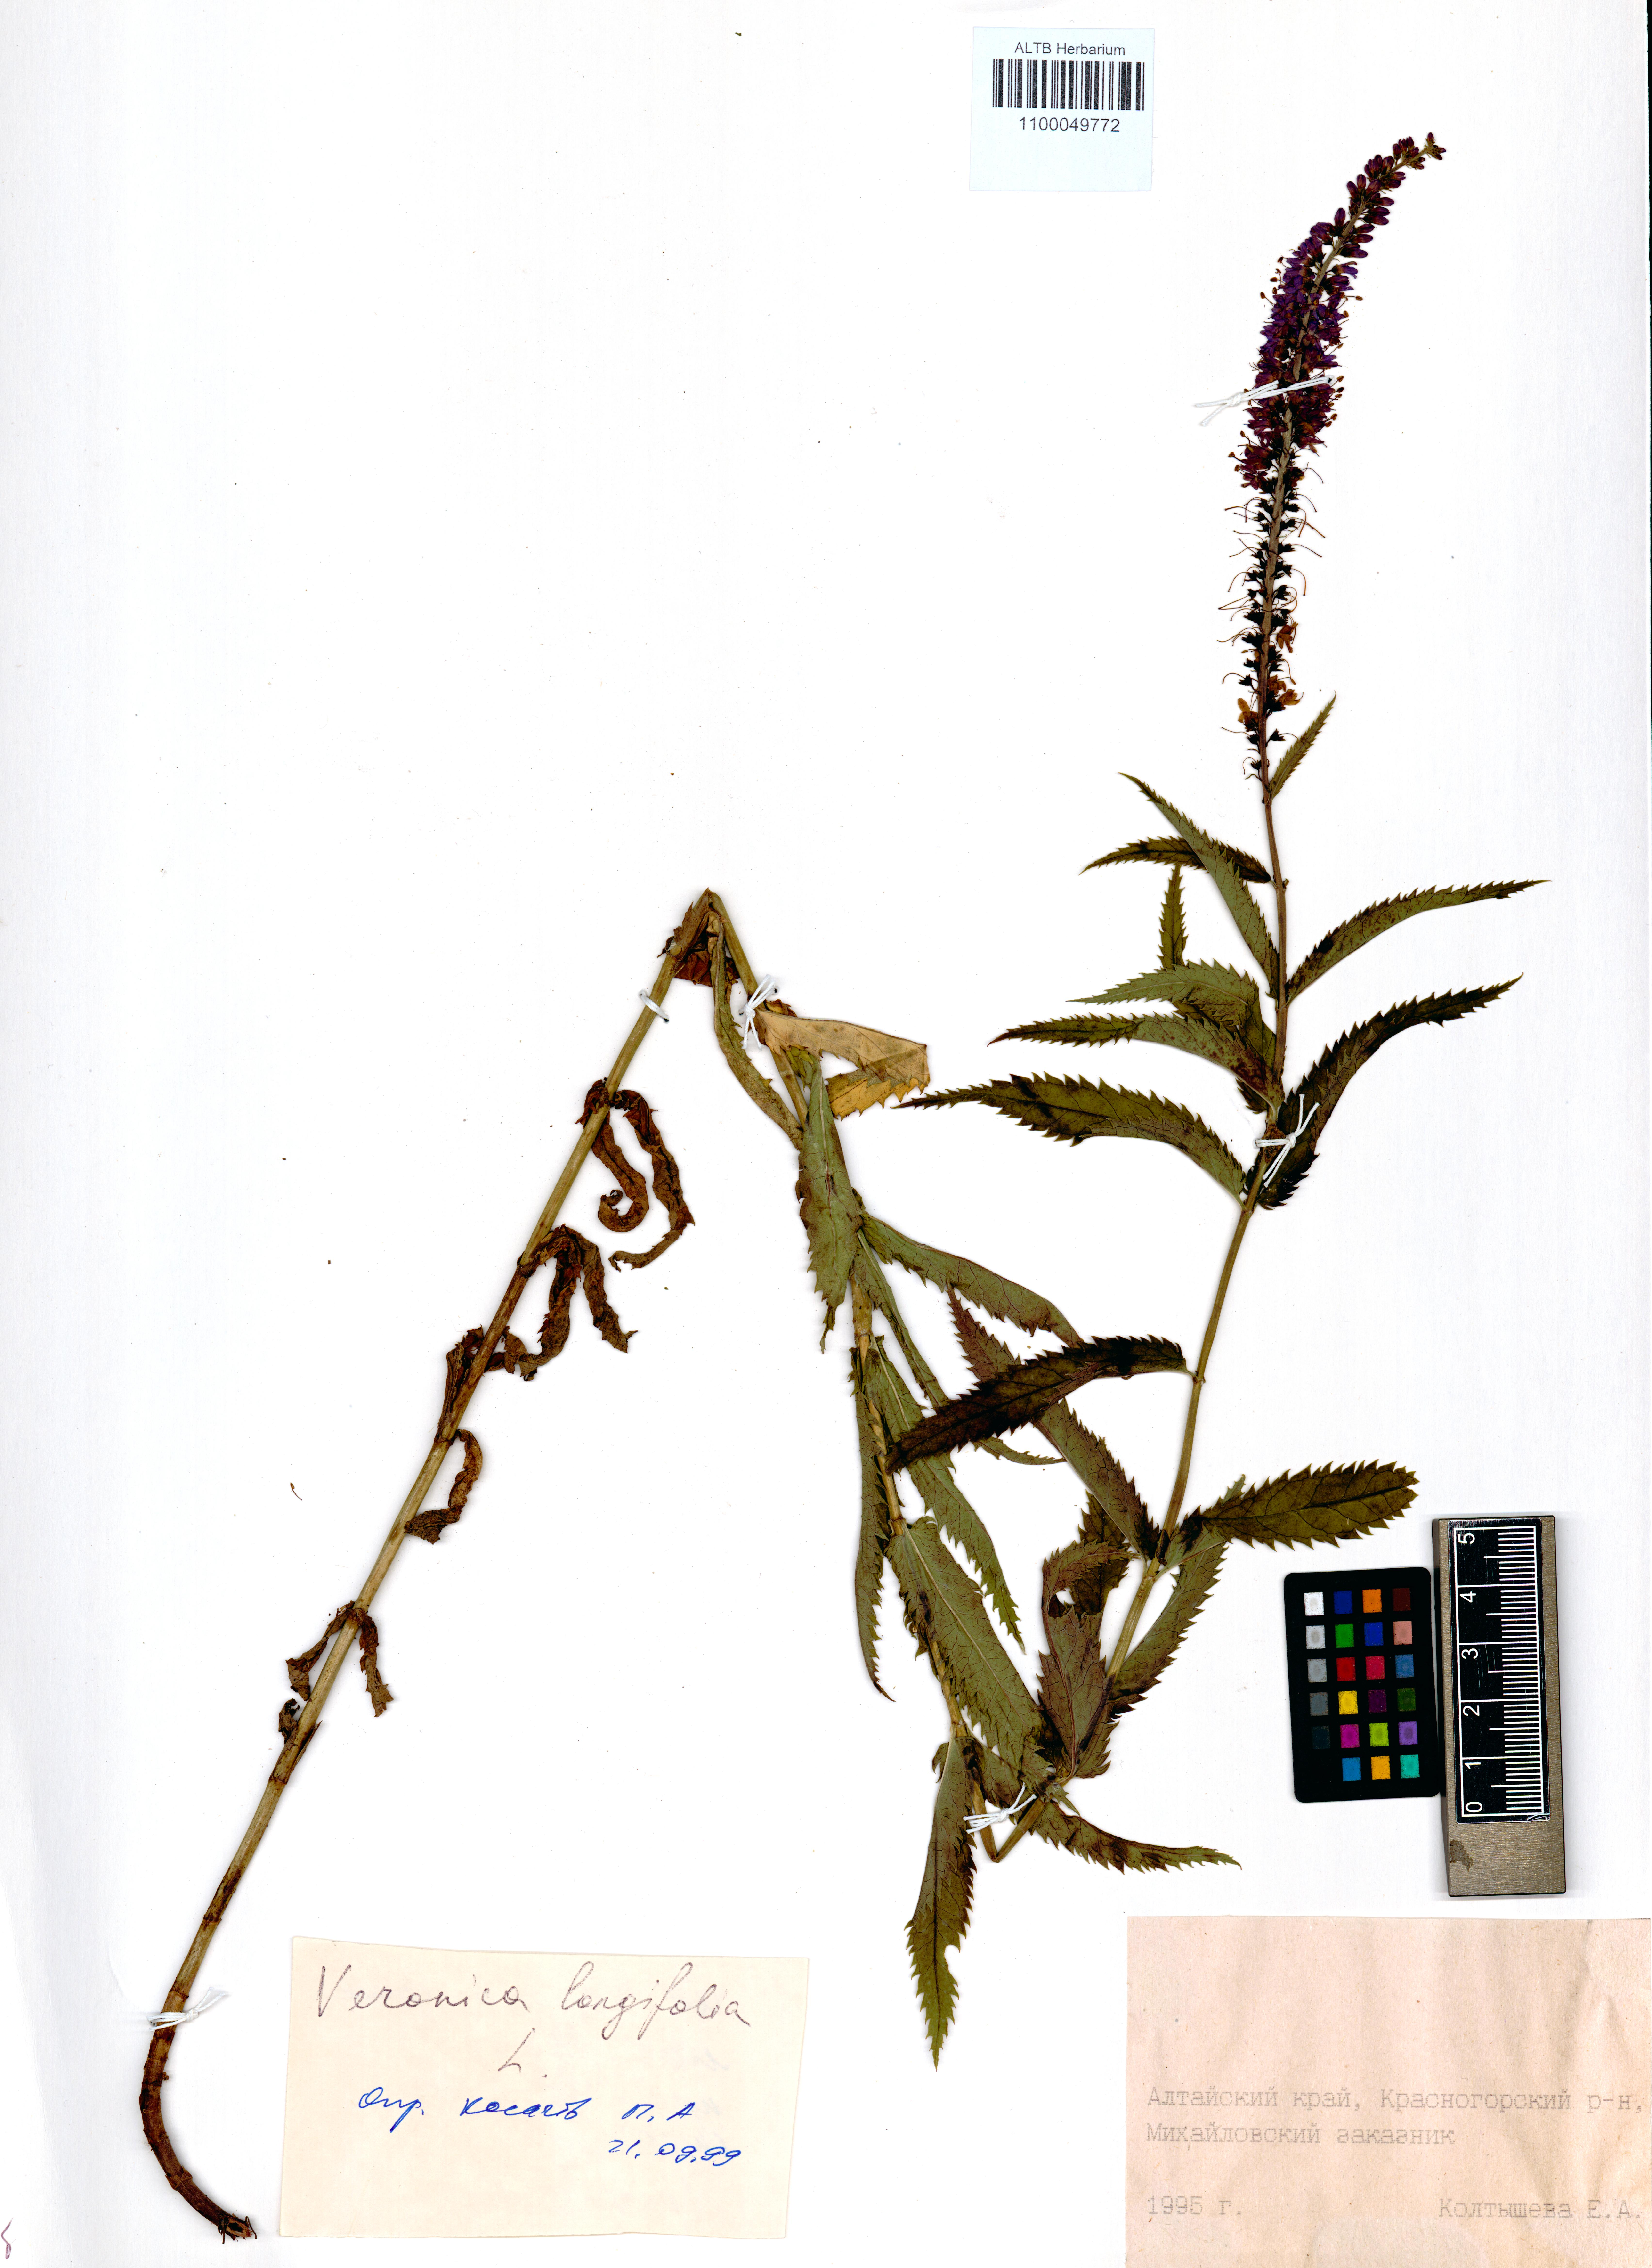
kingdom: Plantae
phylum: Tracheophyta
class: Magnoliopsida
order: Lamiales
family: Plantaginaceae
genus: Veronica
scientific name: Veronica longifolia
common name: Garden speedwell
